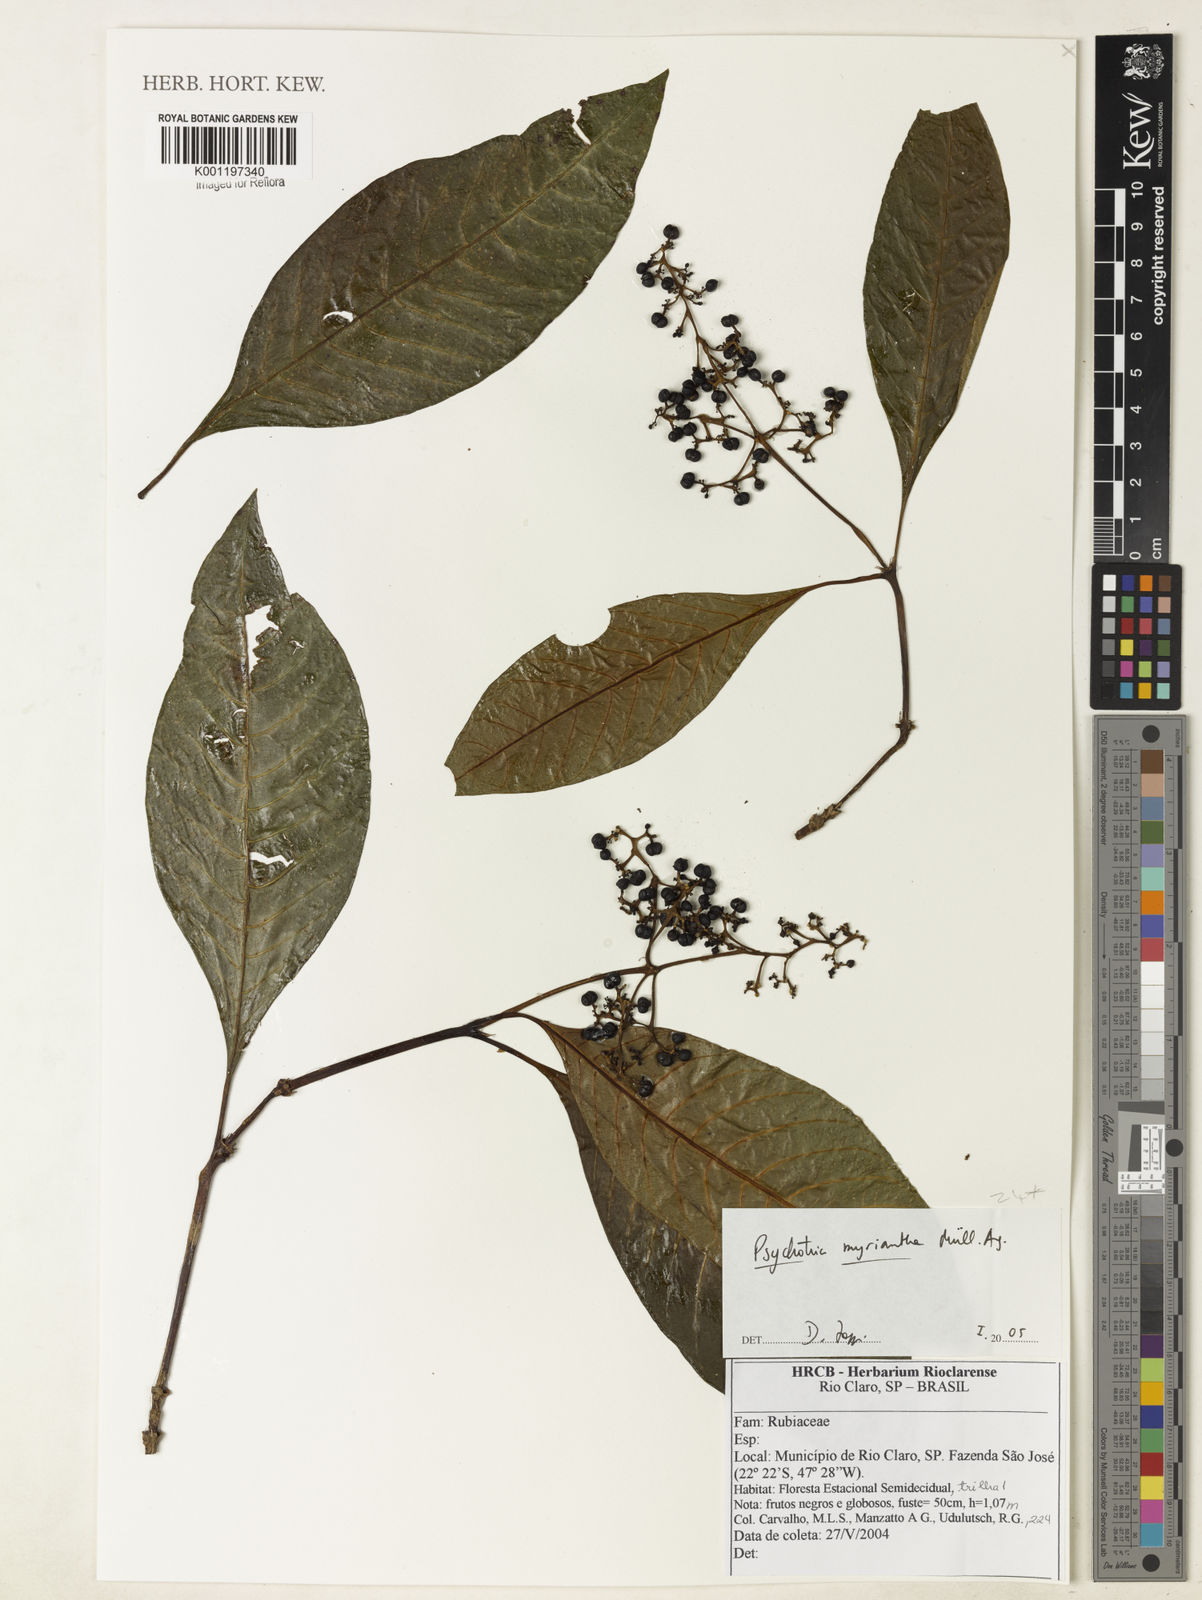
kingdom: Plantae
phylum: Tracheophyta
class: Magnoliopsida
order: Gentianales
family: Rubiaceae
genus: Psychotria
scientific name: Psychotria
